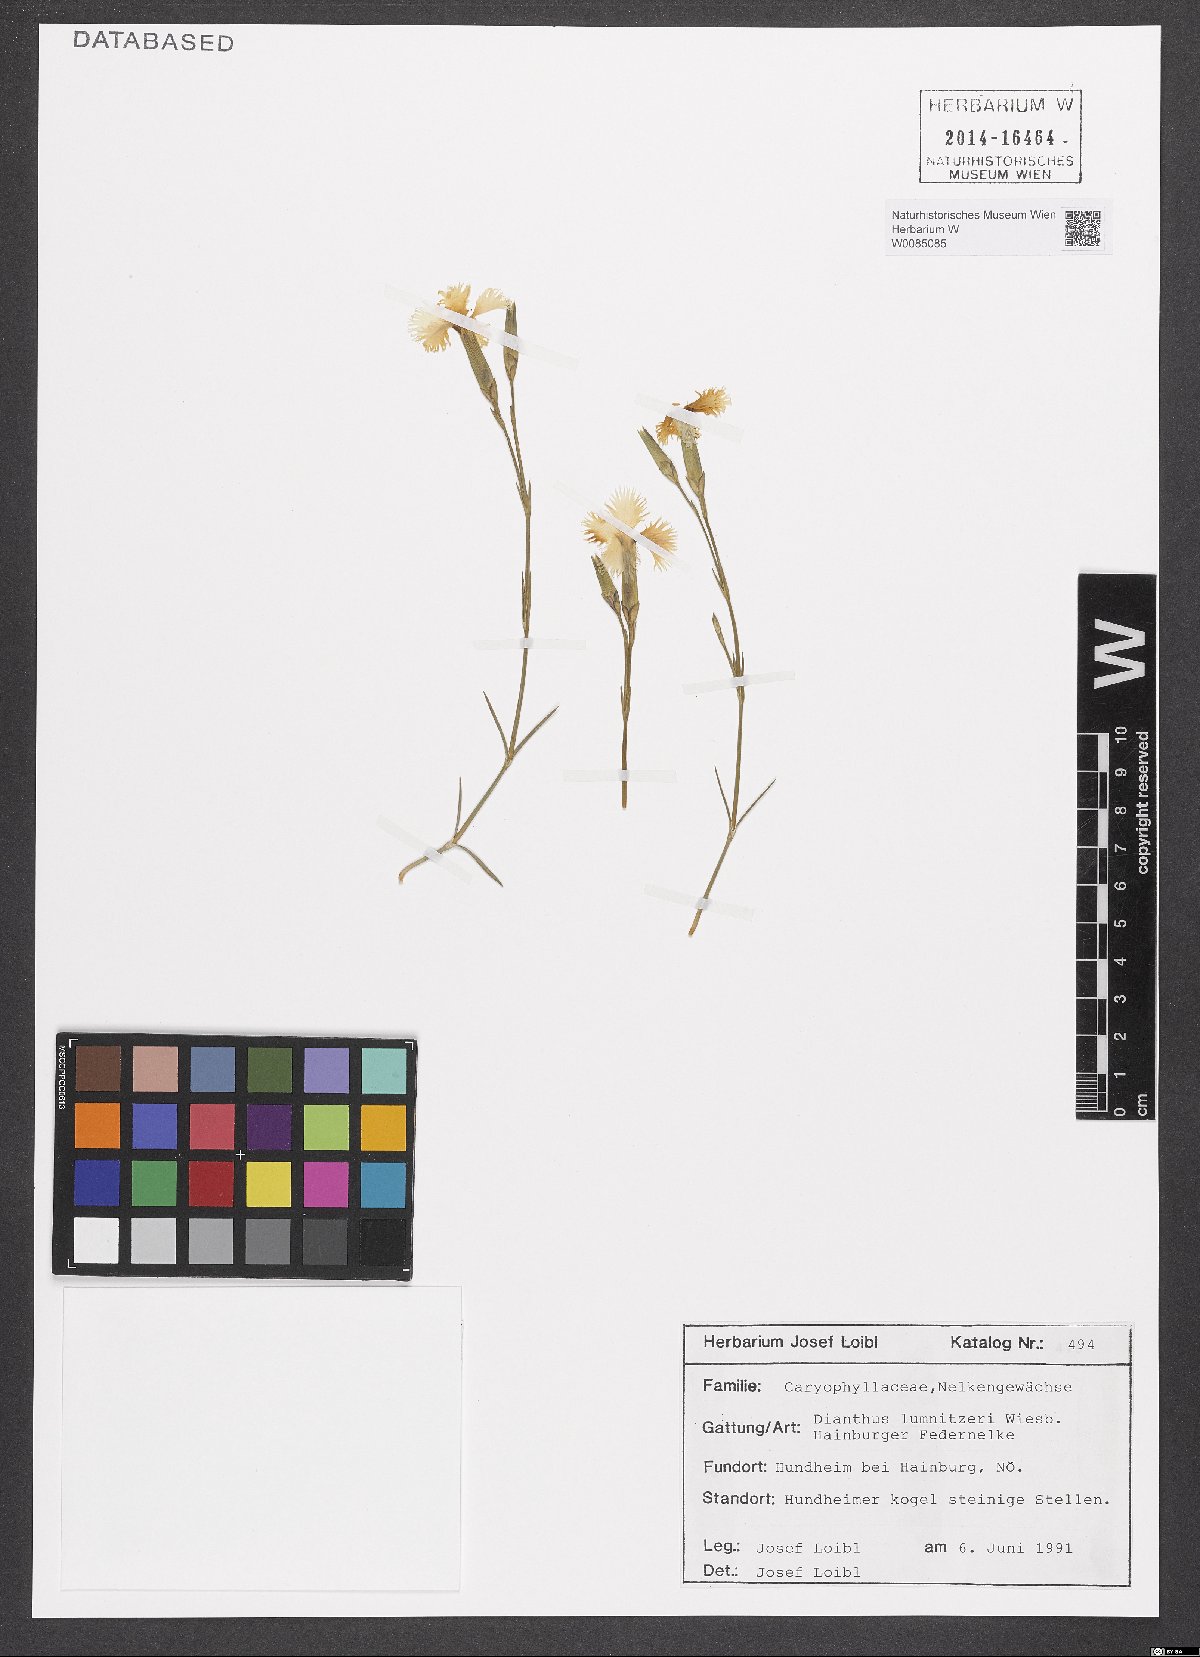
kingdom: Plantae
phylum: Tracheophyta
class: Magnoliopsida
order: Caryophyllales
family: Caryophyllaceae
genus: Dianthus
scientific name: Dianthus praecox
